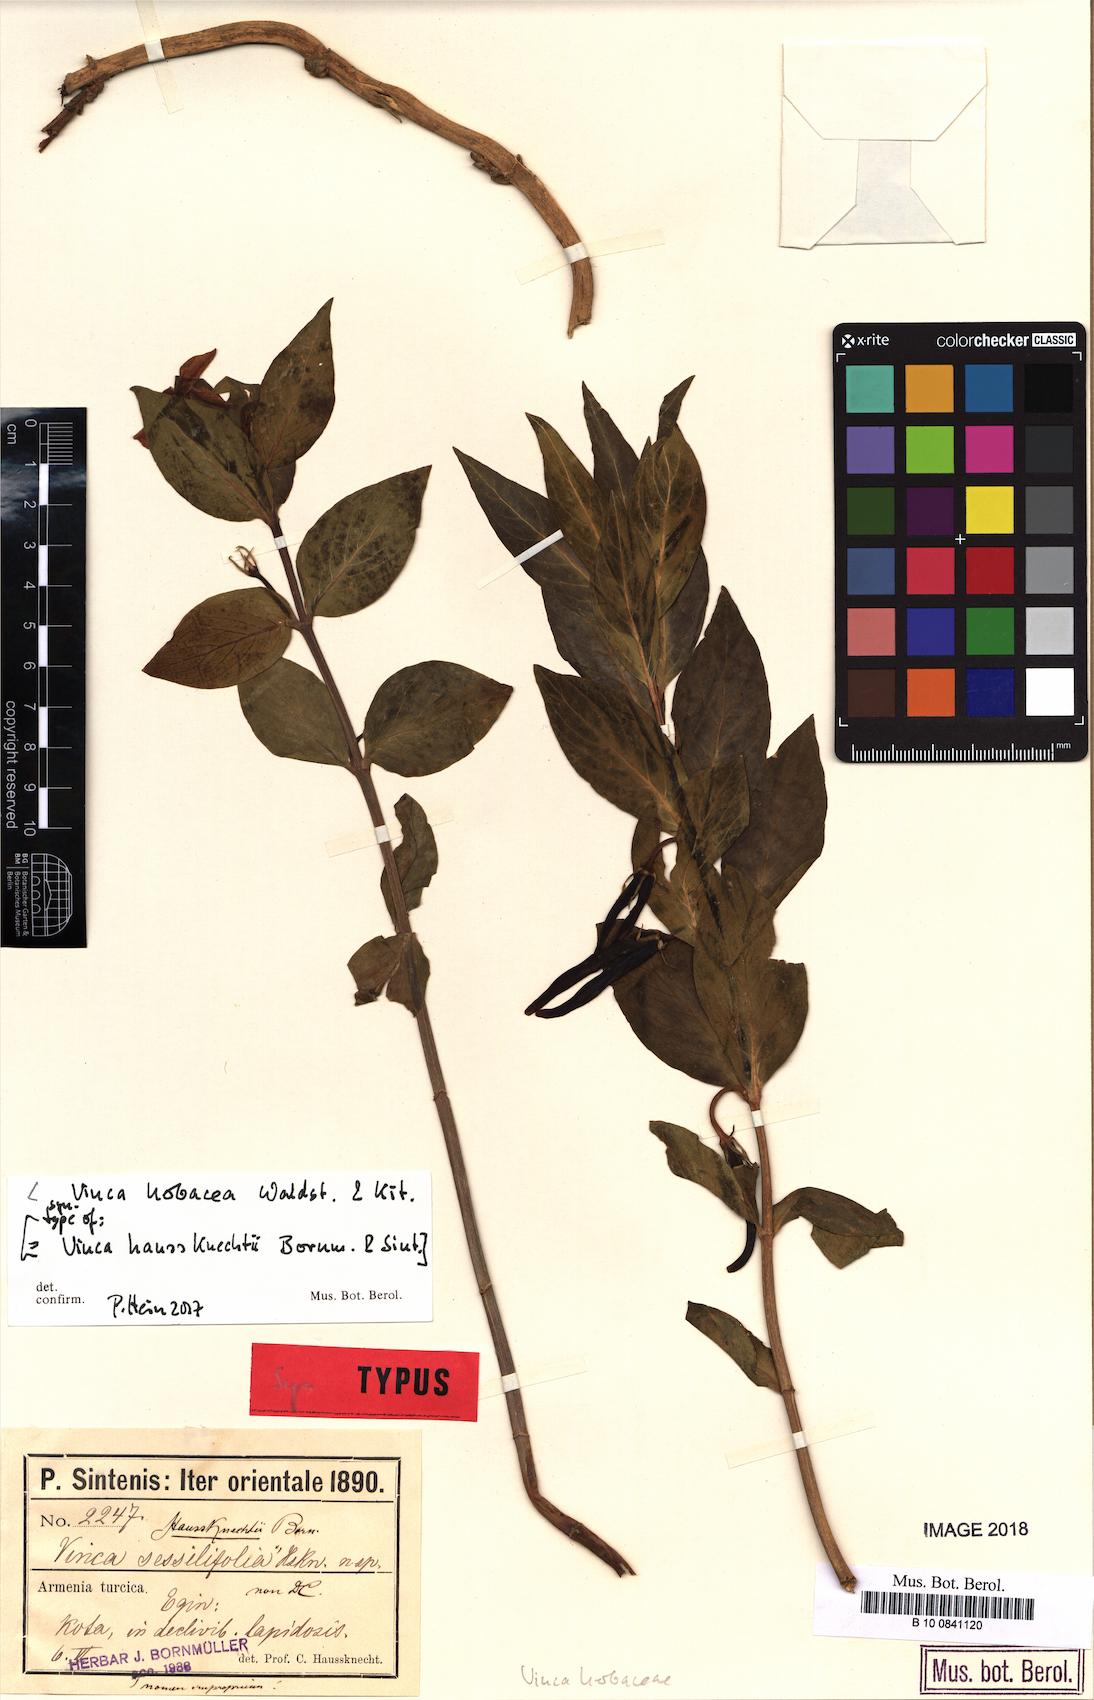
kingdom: Plantae
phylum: Tracheophyta
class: Magnoliopsida
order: Gentianales
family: Apocynaceae
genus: Vinca
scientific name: Vinca herbacea
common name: Herbaceous periwinkle
